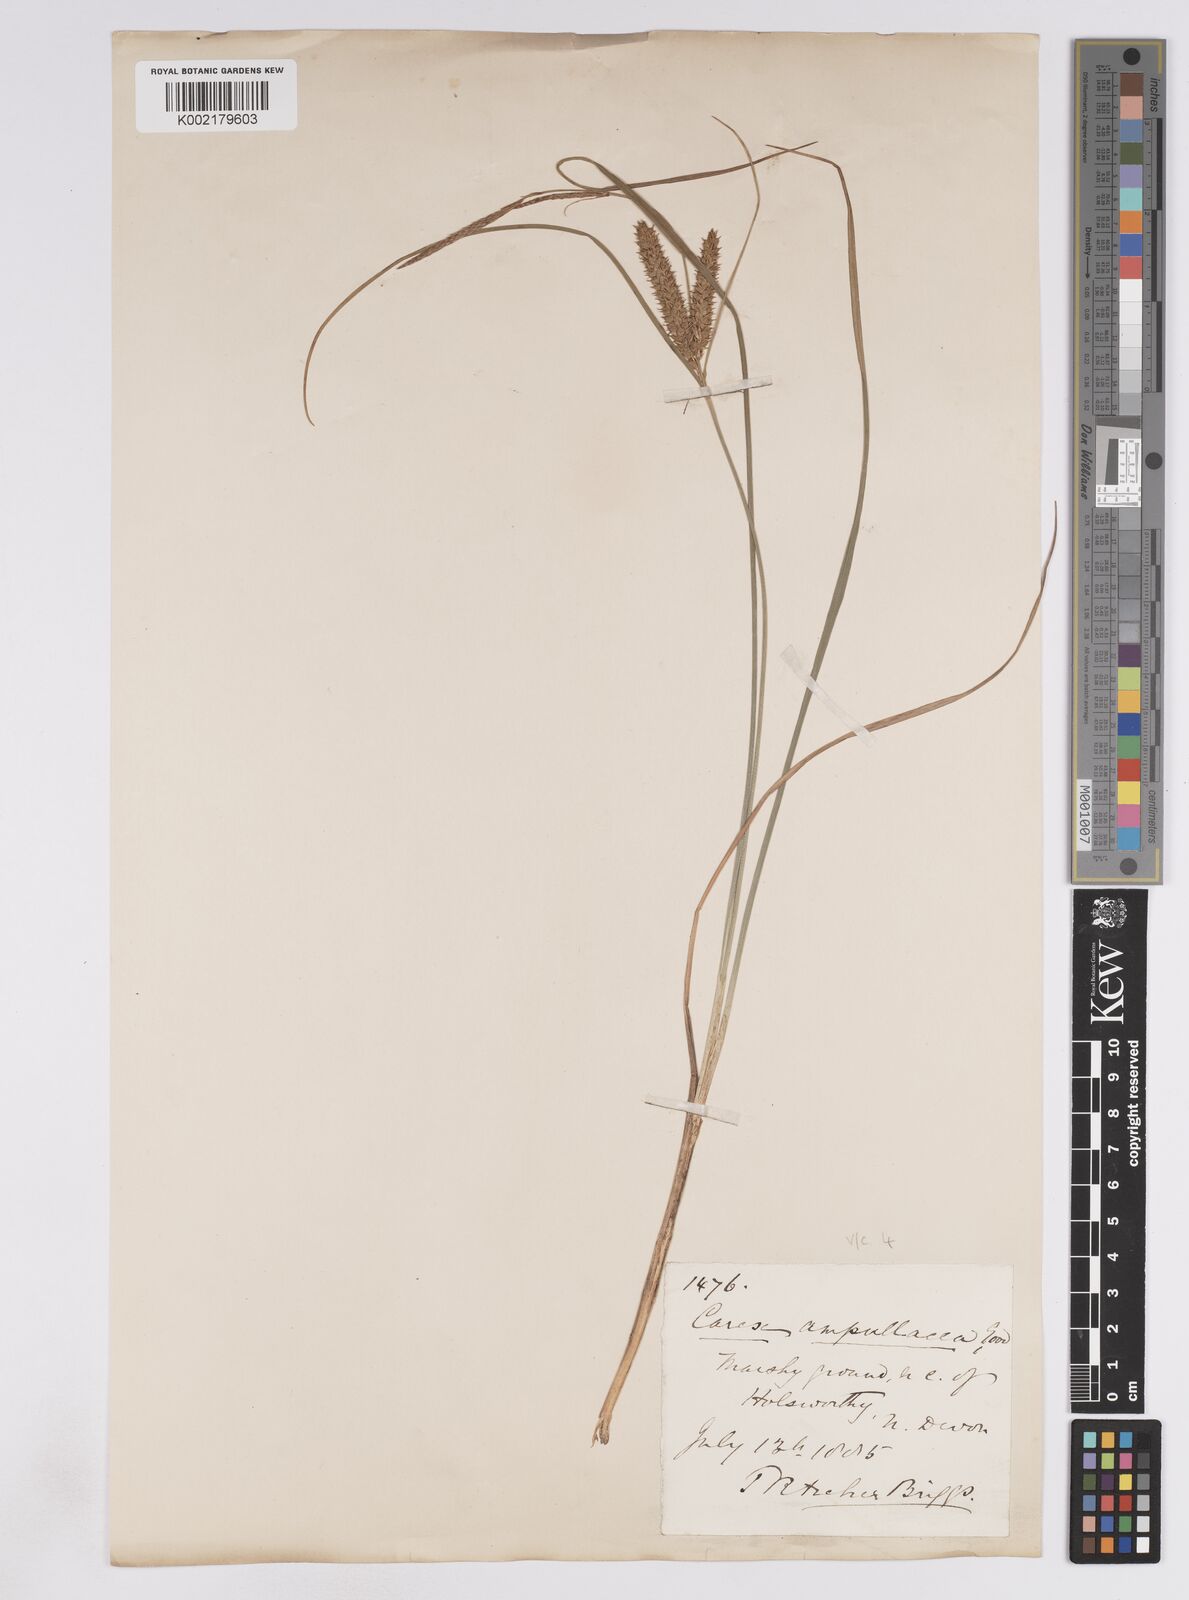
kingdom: Plantae
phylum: Tracheophyta
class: Liliopsida
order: Poales
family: Cyperaceae
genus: Carex
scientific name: Carex rostrata
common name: Bottle sedge
